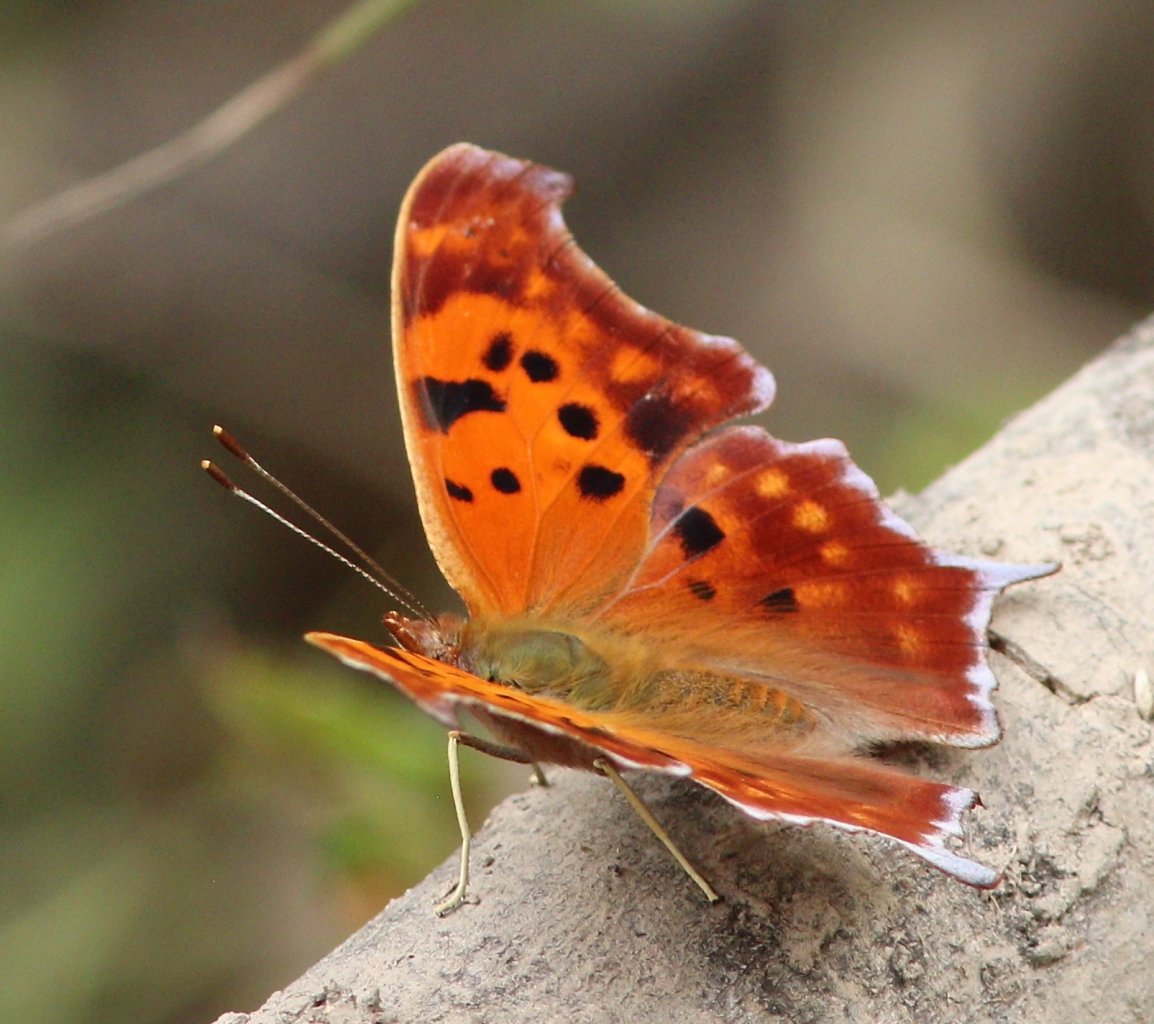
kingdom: Animalia
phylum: Arthropoda
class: Insecta
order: Lepidoptera
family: Nymphalidae
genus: Polygonia
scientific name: Polygonia interrogationis
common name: Question Mark
